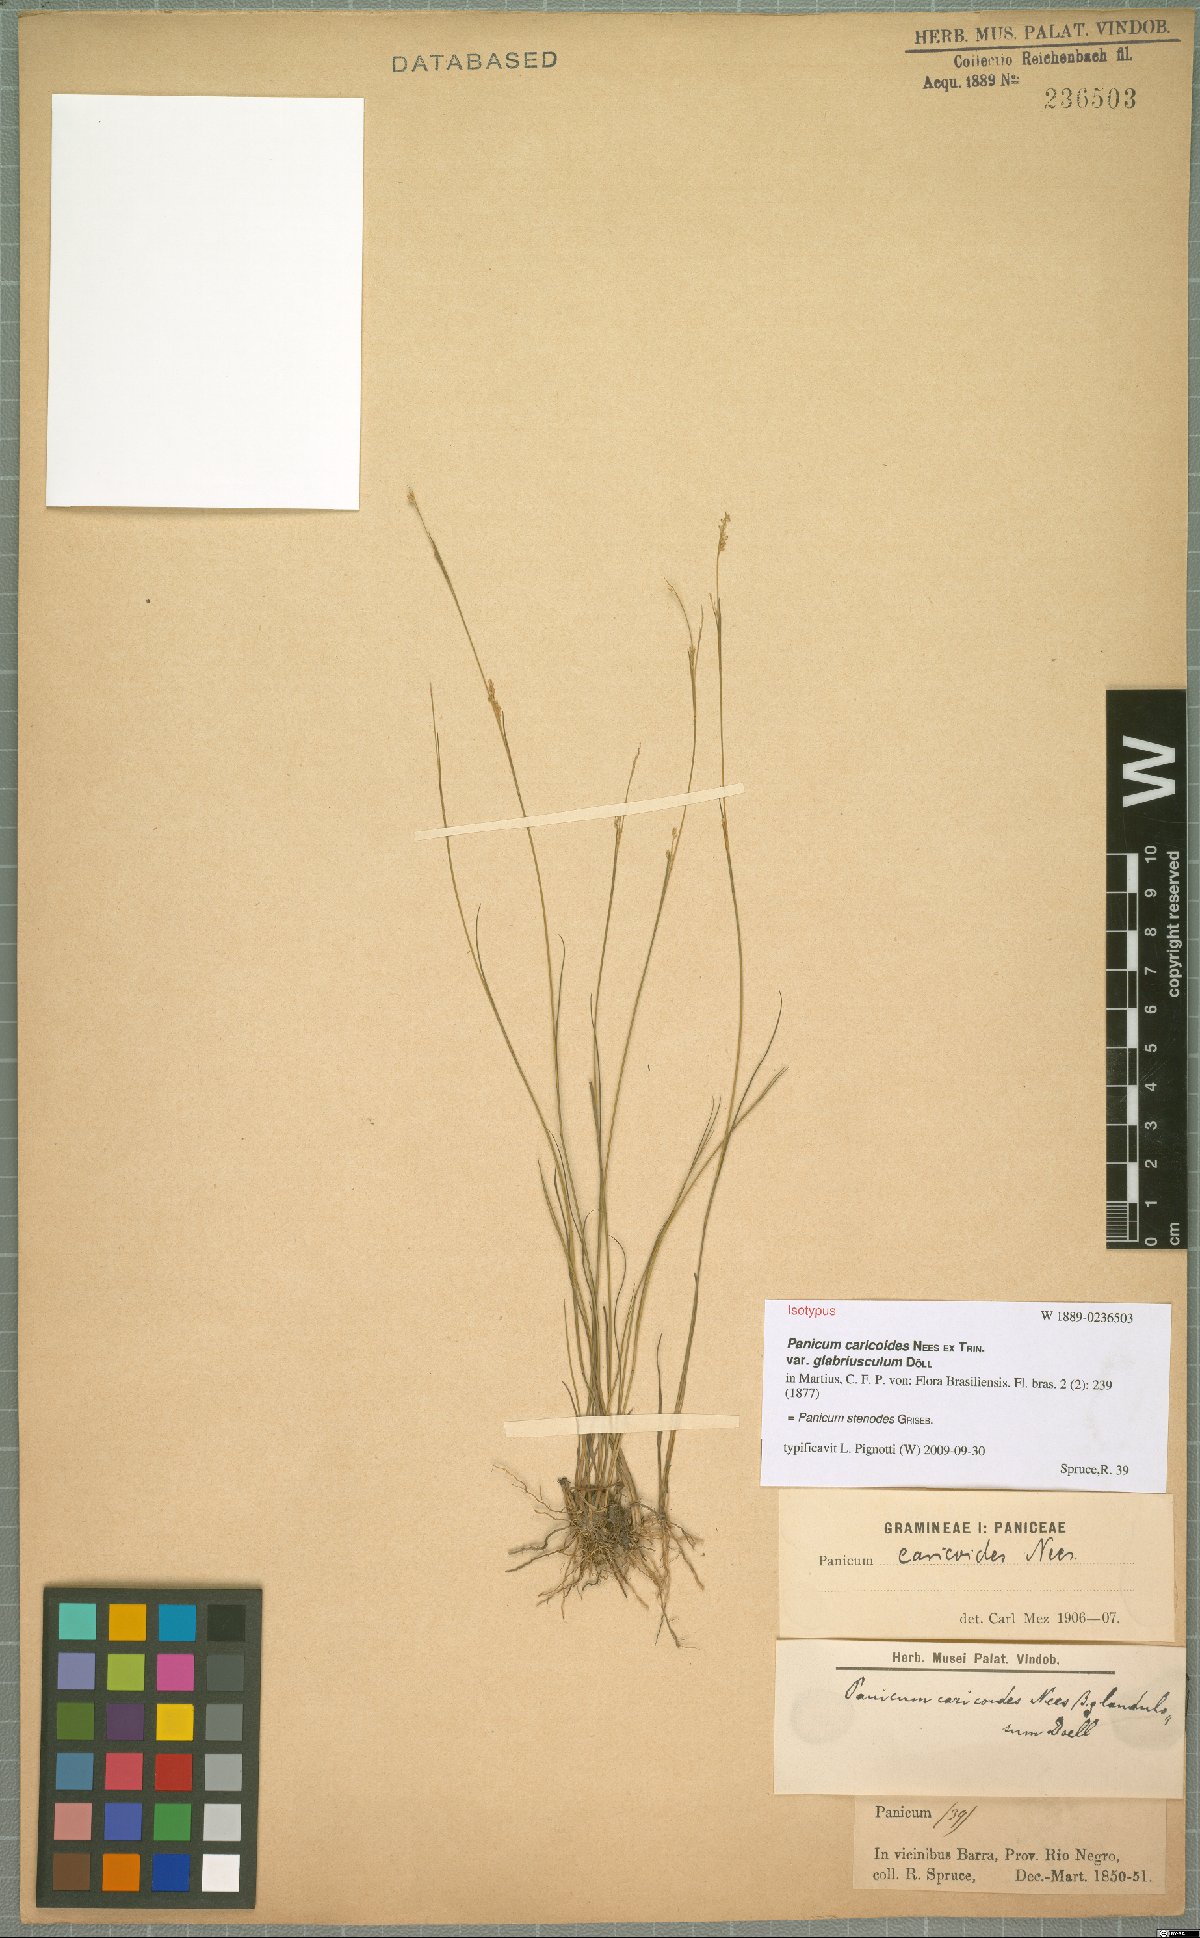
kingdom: Plantae
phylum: Tracheophyta
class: Liliopsida
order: Poales
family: Poaceae
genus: Coleataenia
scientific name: Coleataenia stenodes
